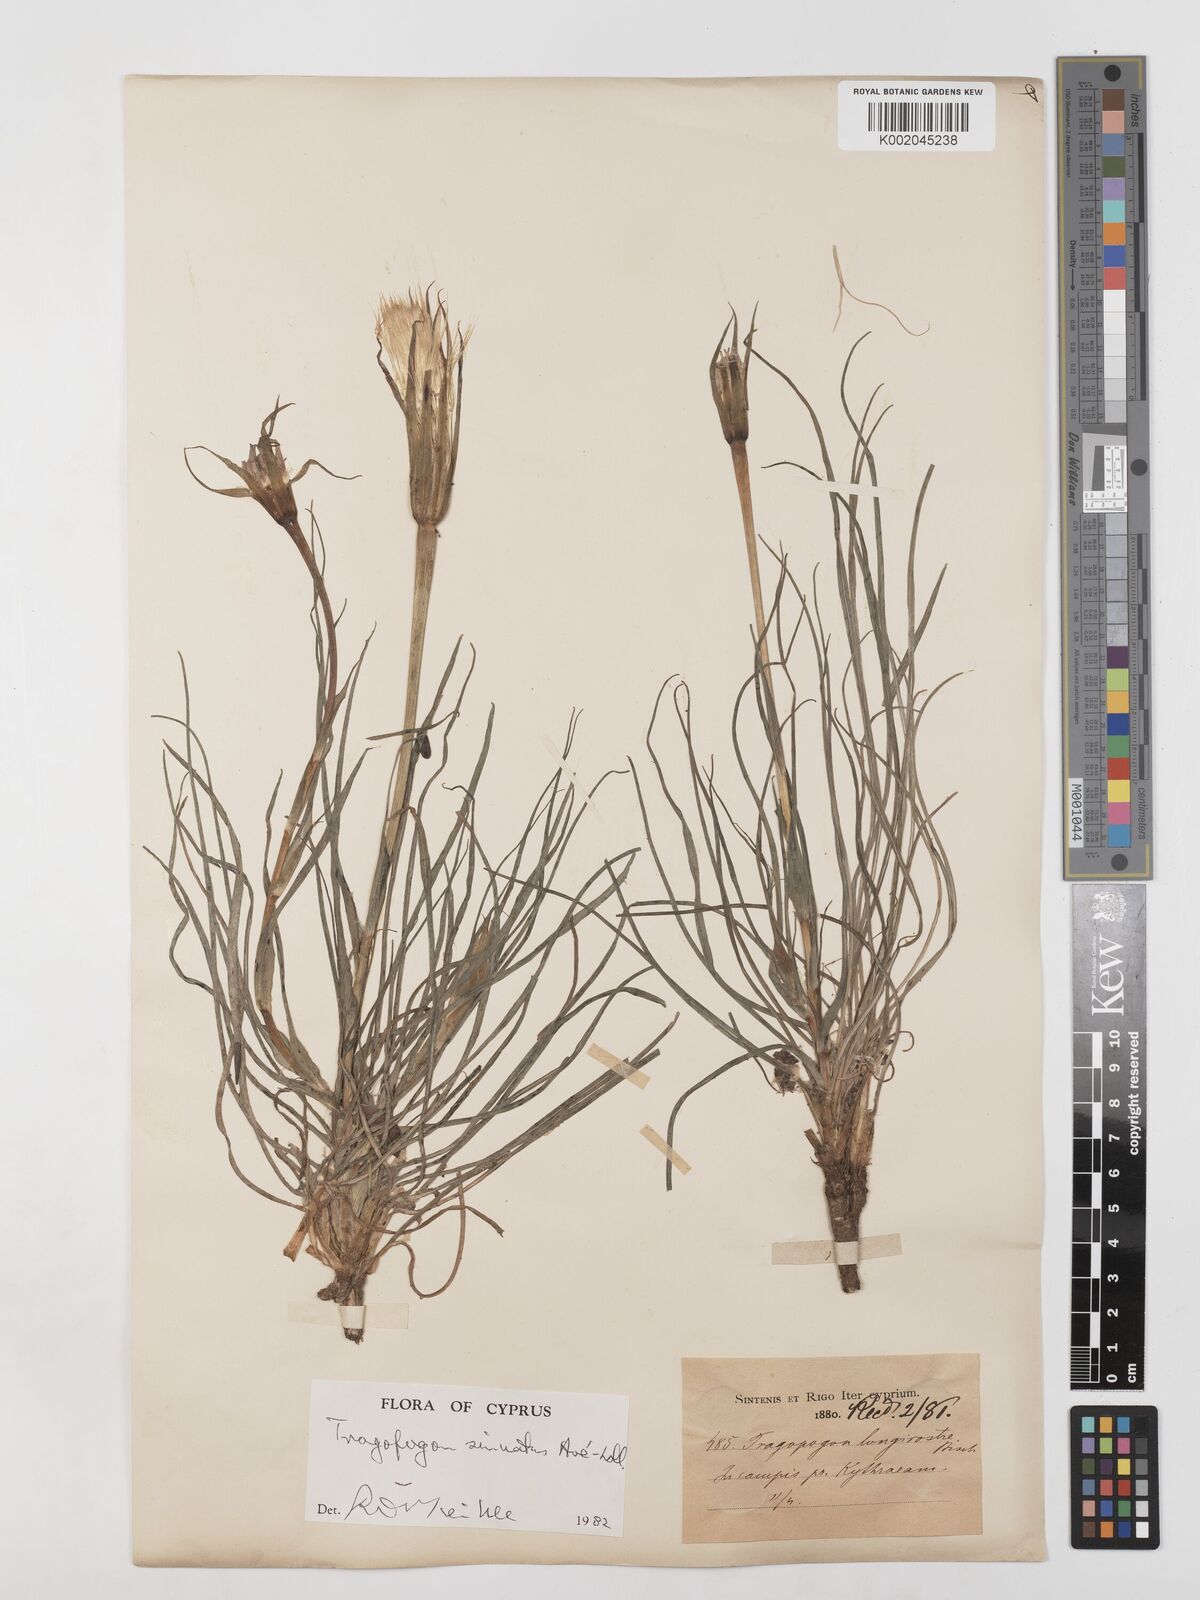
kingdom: Plantae
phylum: Tracheophyta
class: Magnoliopsida
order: Asterales
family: Asteraceae
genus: Tragopogon
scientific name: Tragopogon porrifolius
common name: Salsify
